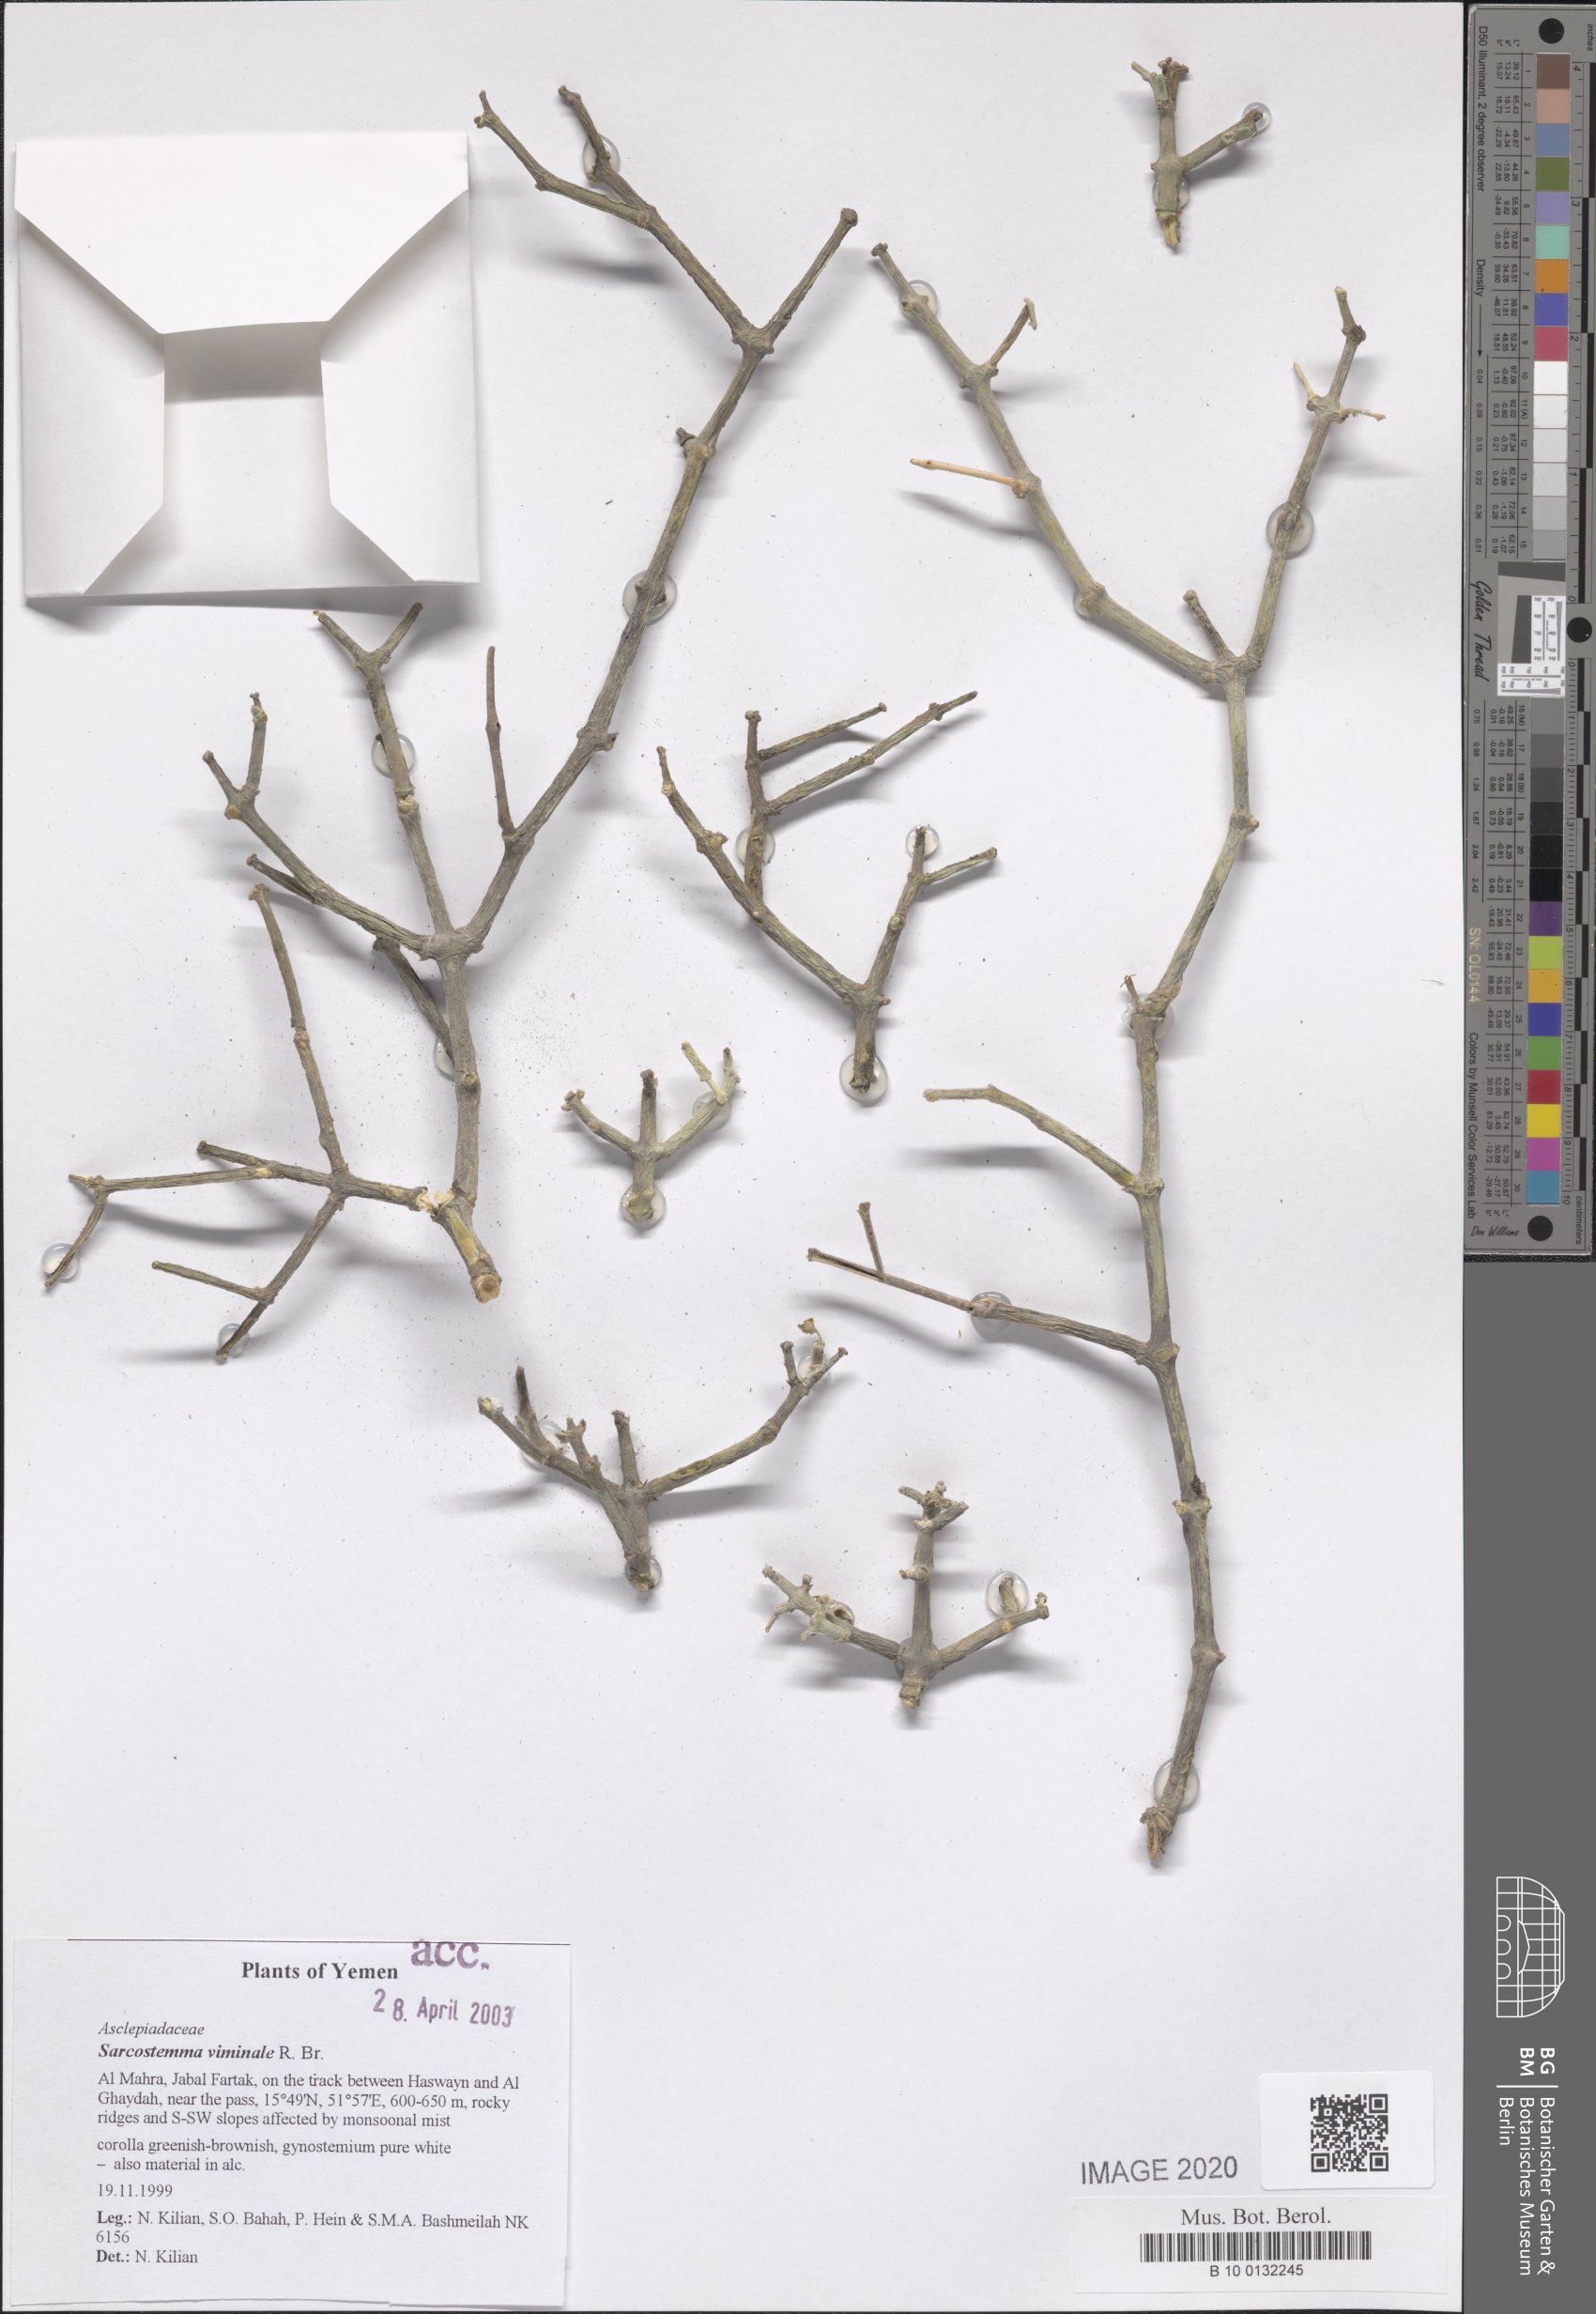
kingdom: Plantae
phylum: Tracheophyta
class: Magnoliopsida
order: Gentianales
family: Apocynaceae
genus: Cynanchum
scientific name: Cynanchum viminale
